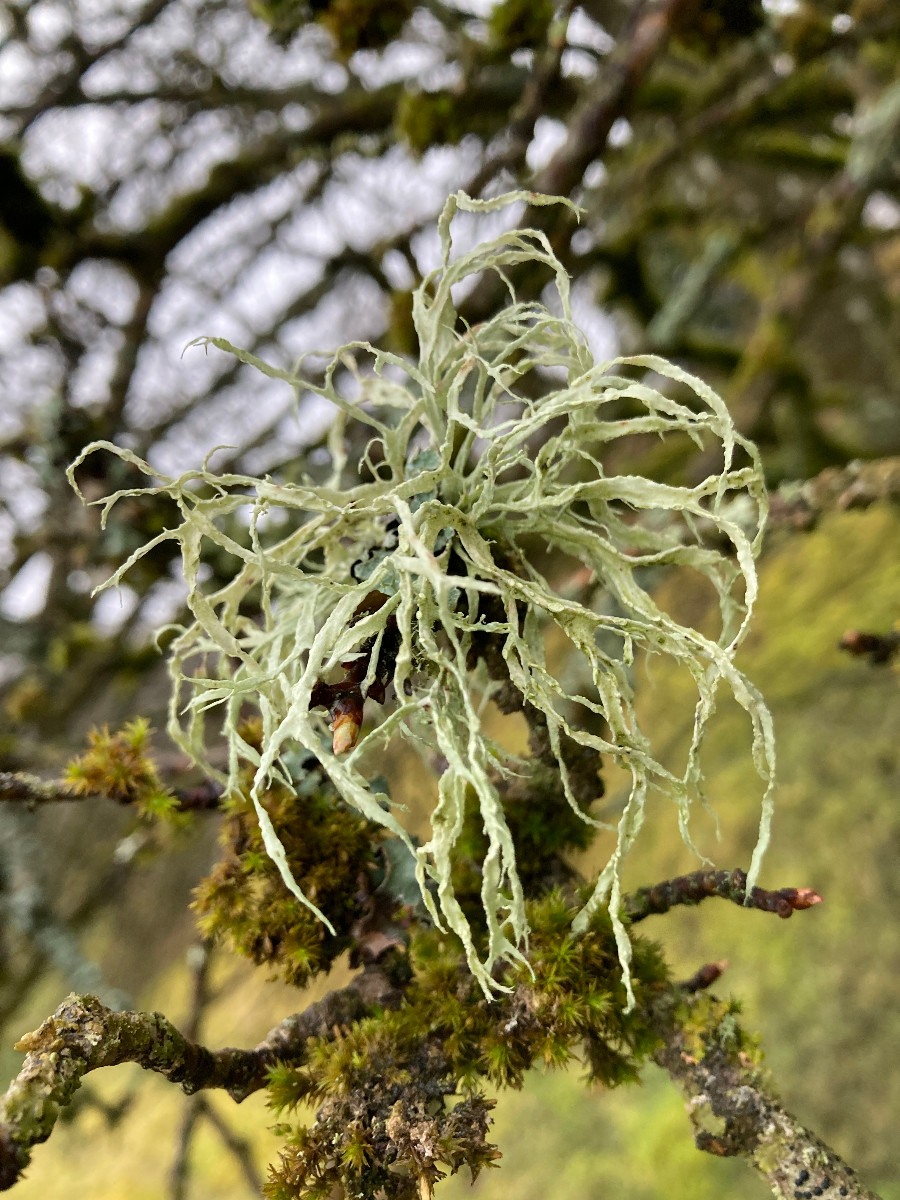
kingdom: Fungi
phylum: Ascomycota
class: Lecanoromycetes
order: Lecanorales
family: Ramalinaceae
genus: Ramalina
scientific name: Ramalina farinacea
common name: melet grenlav
